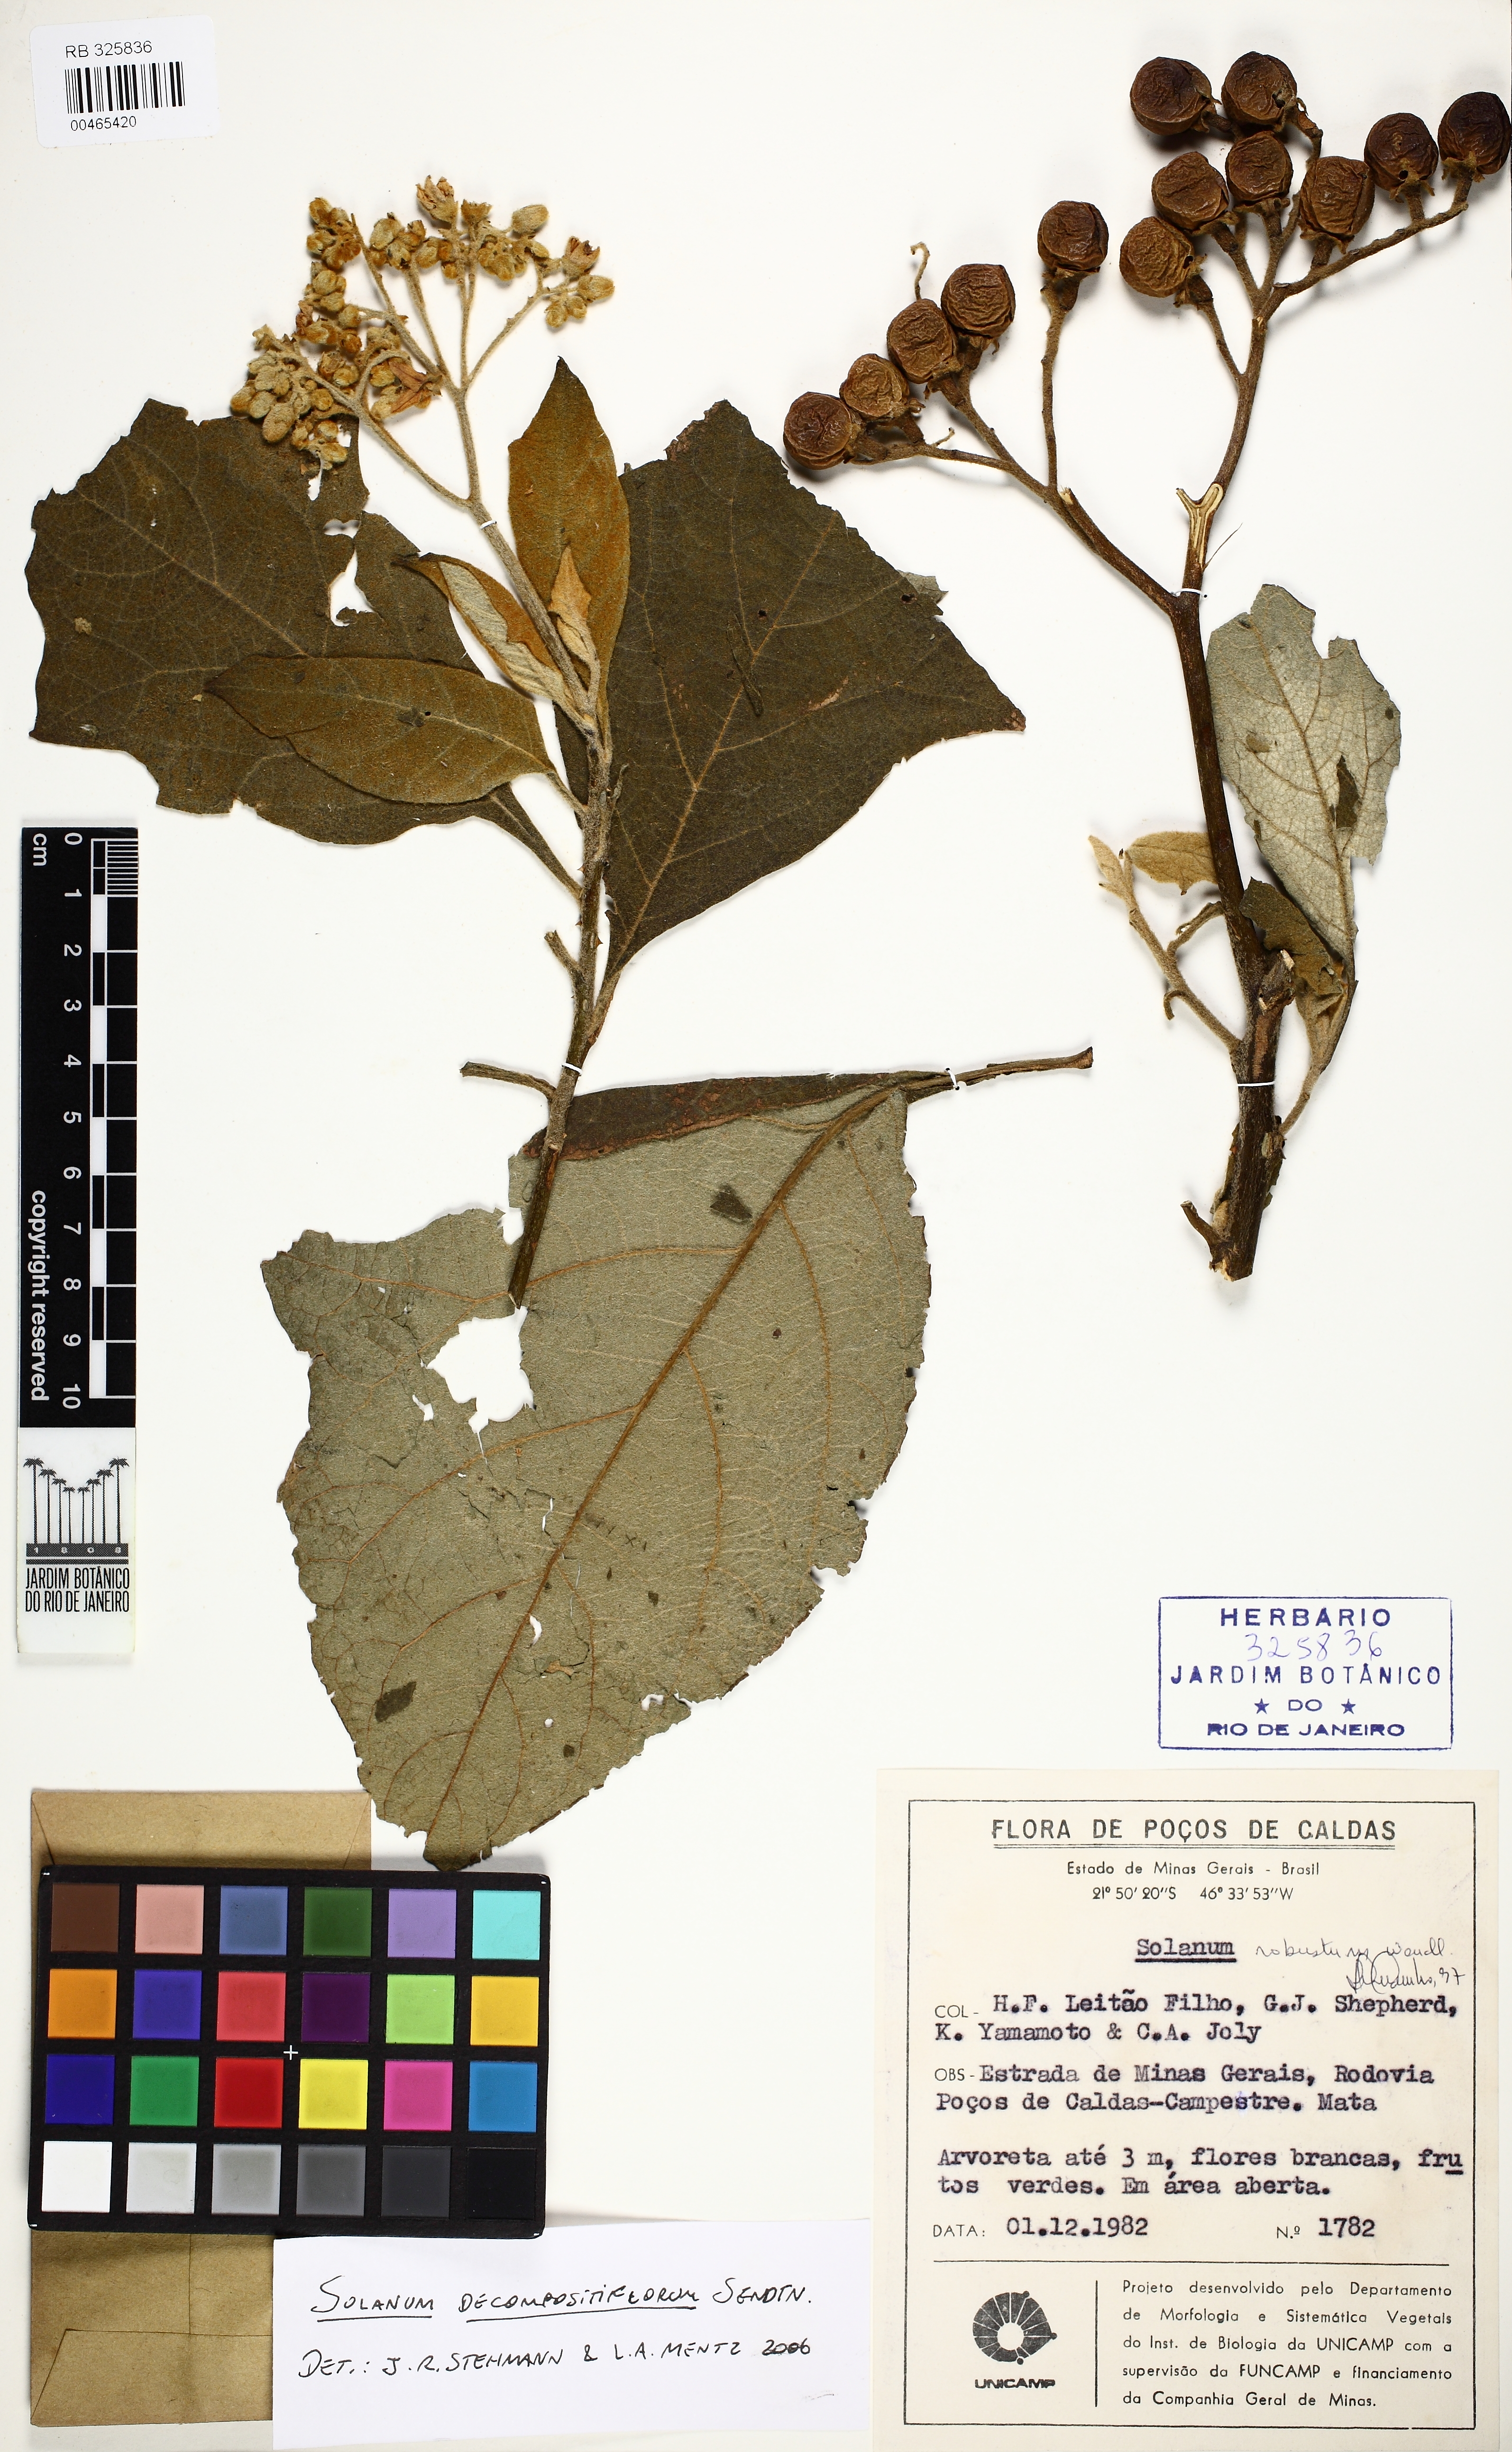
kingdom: Plantae
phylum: Tracheophyta
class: Magnoliopsida
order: Solanales
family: Solanaceae
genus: Solanum
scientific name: Solanum decompositiflorum
